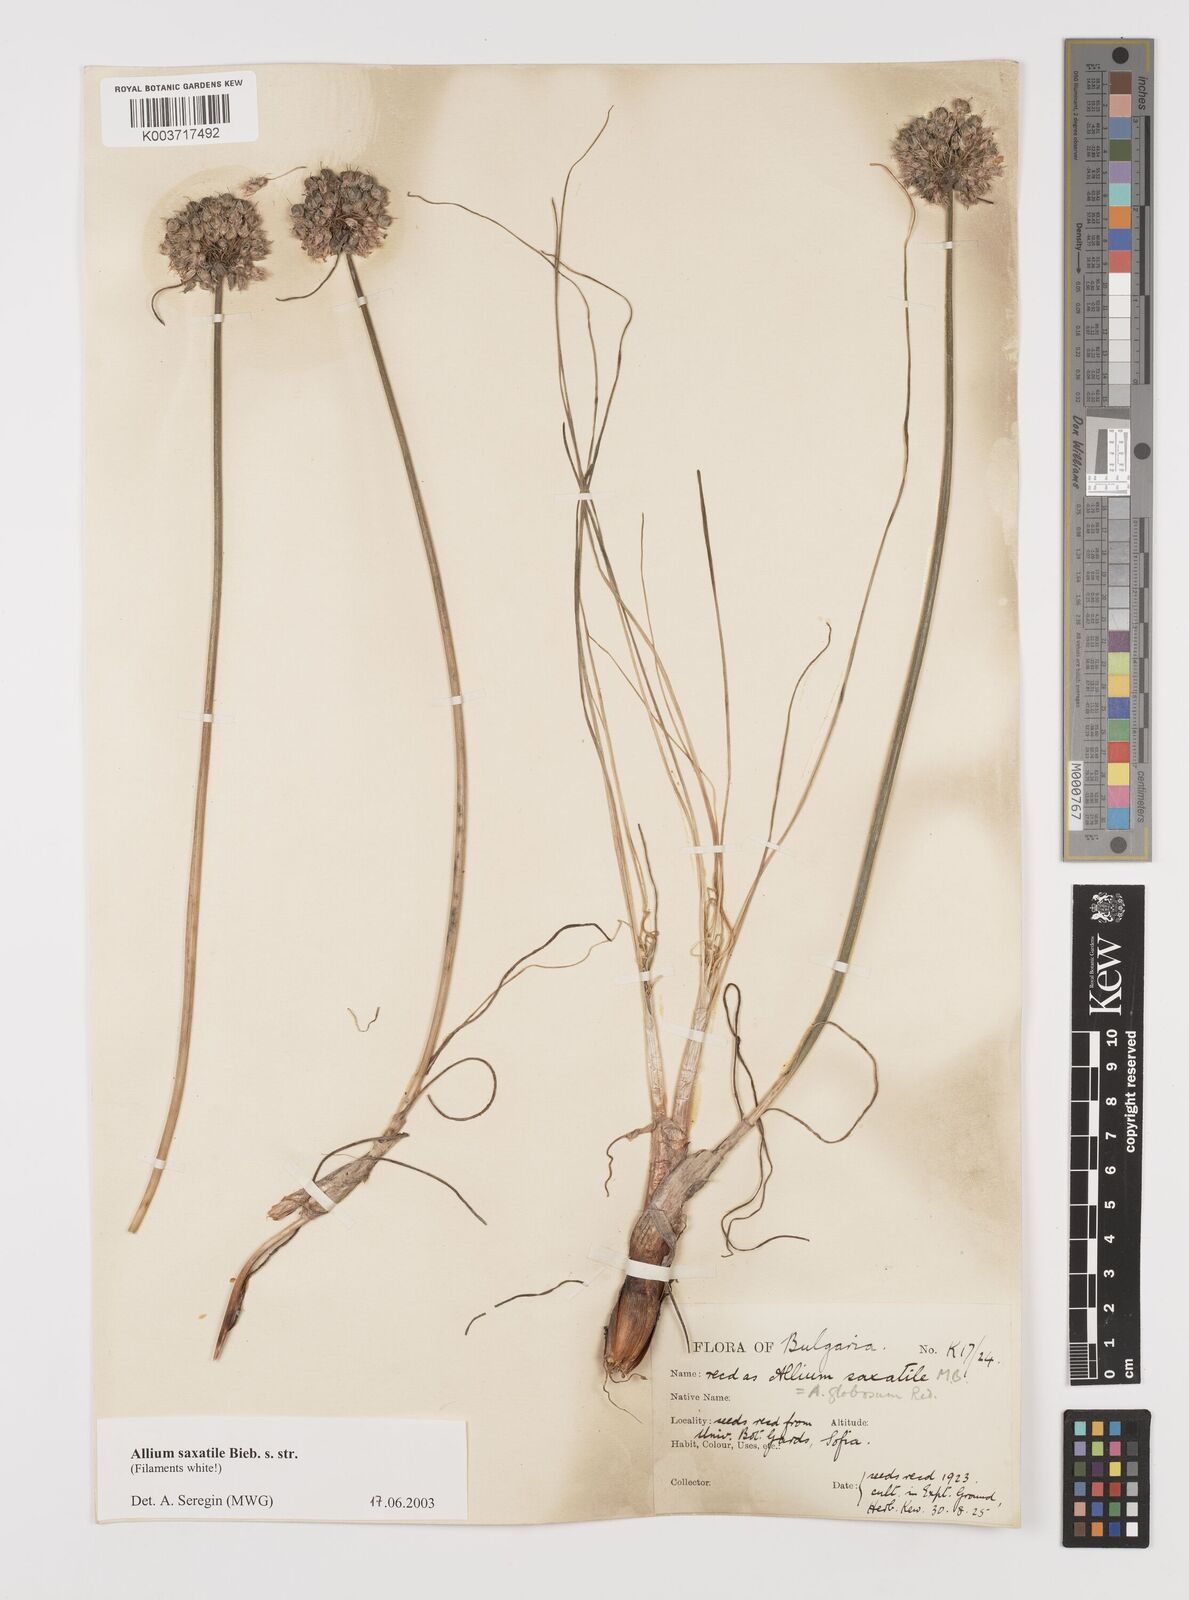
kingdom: Plantae
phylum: Tracheophyta
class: Liliopsida
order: Asparagales
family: Amaryllidaceae
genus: Allium
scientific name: Allium saxatile
